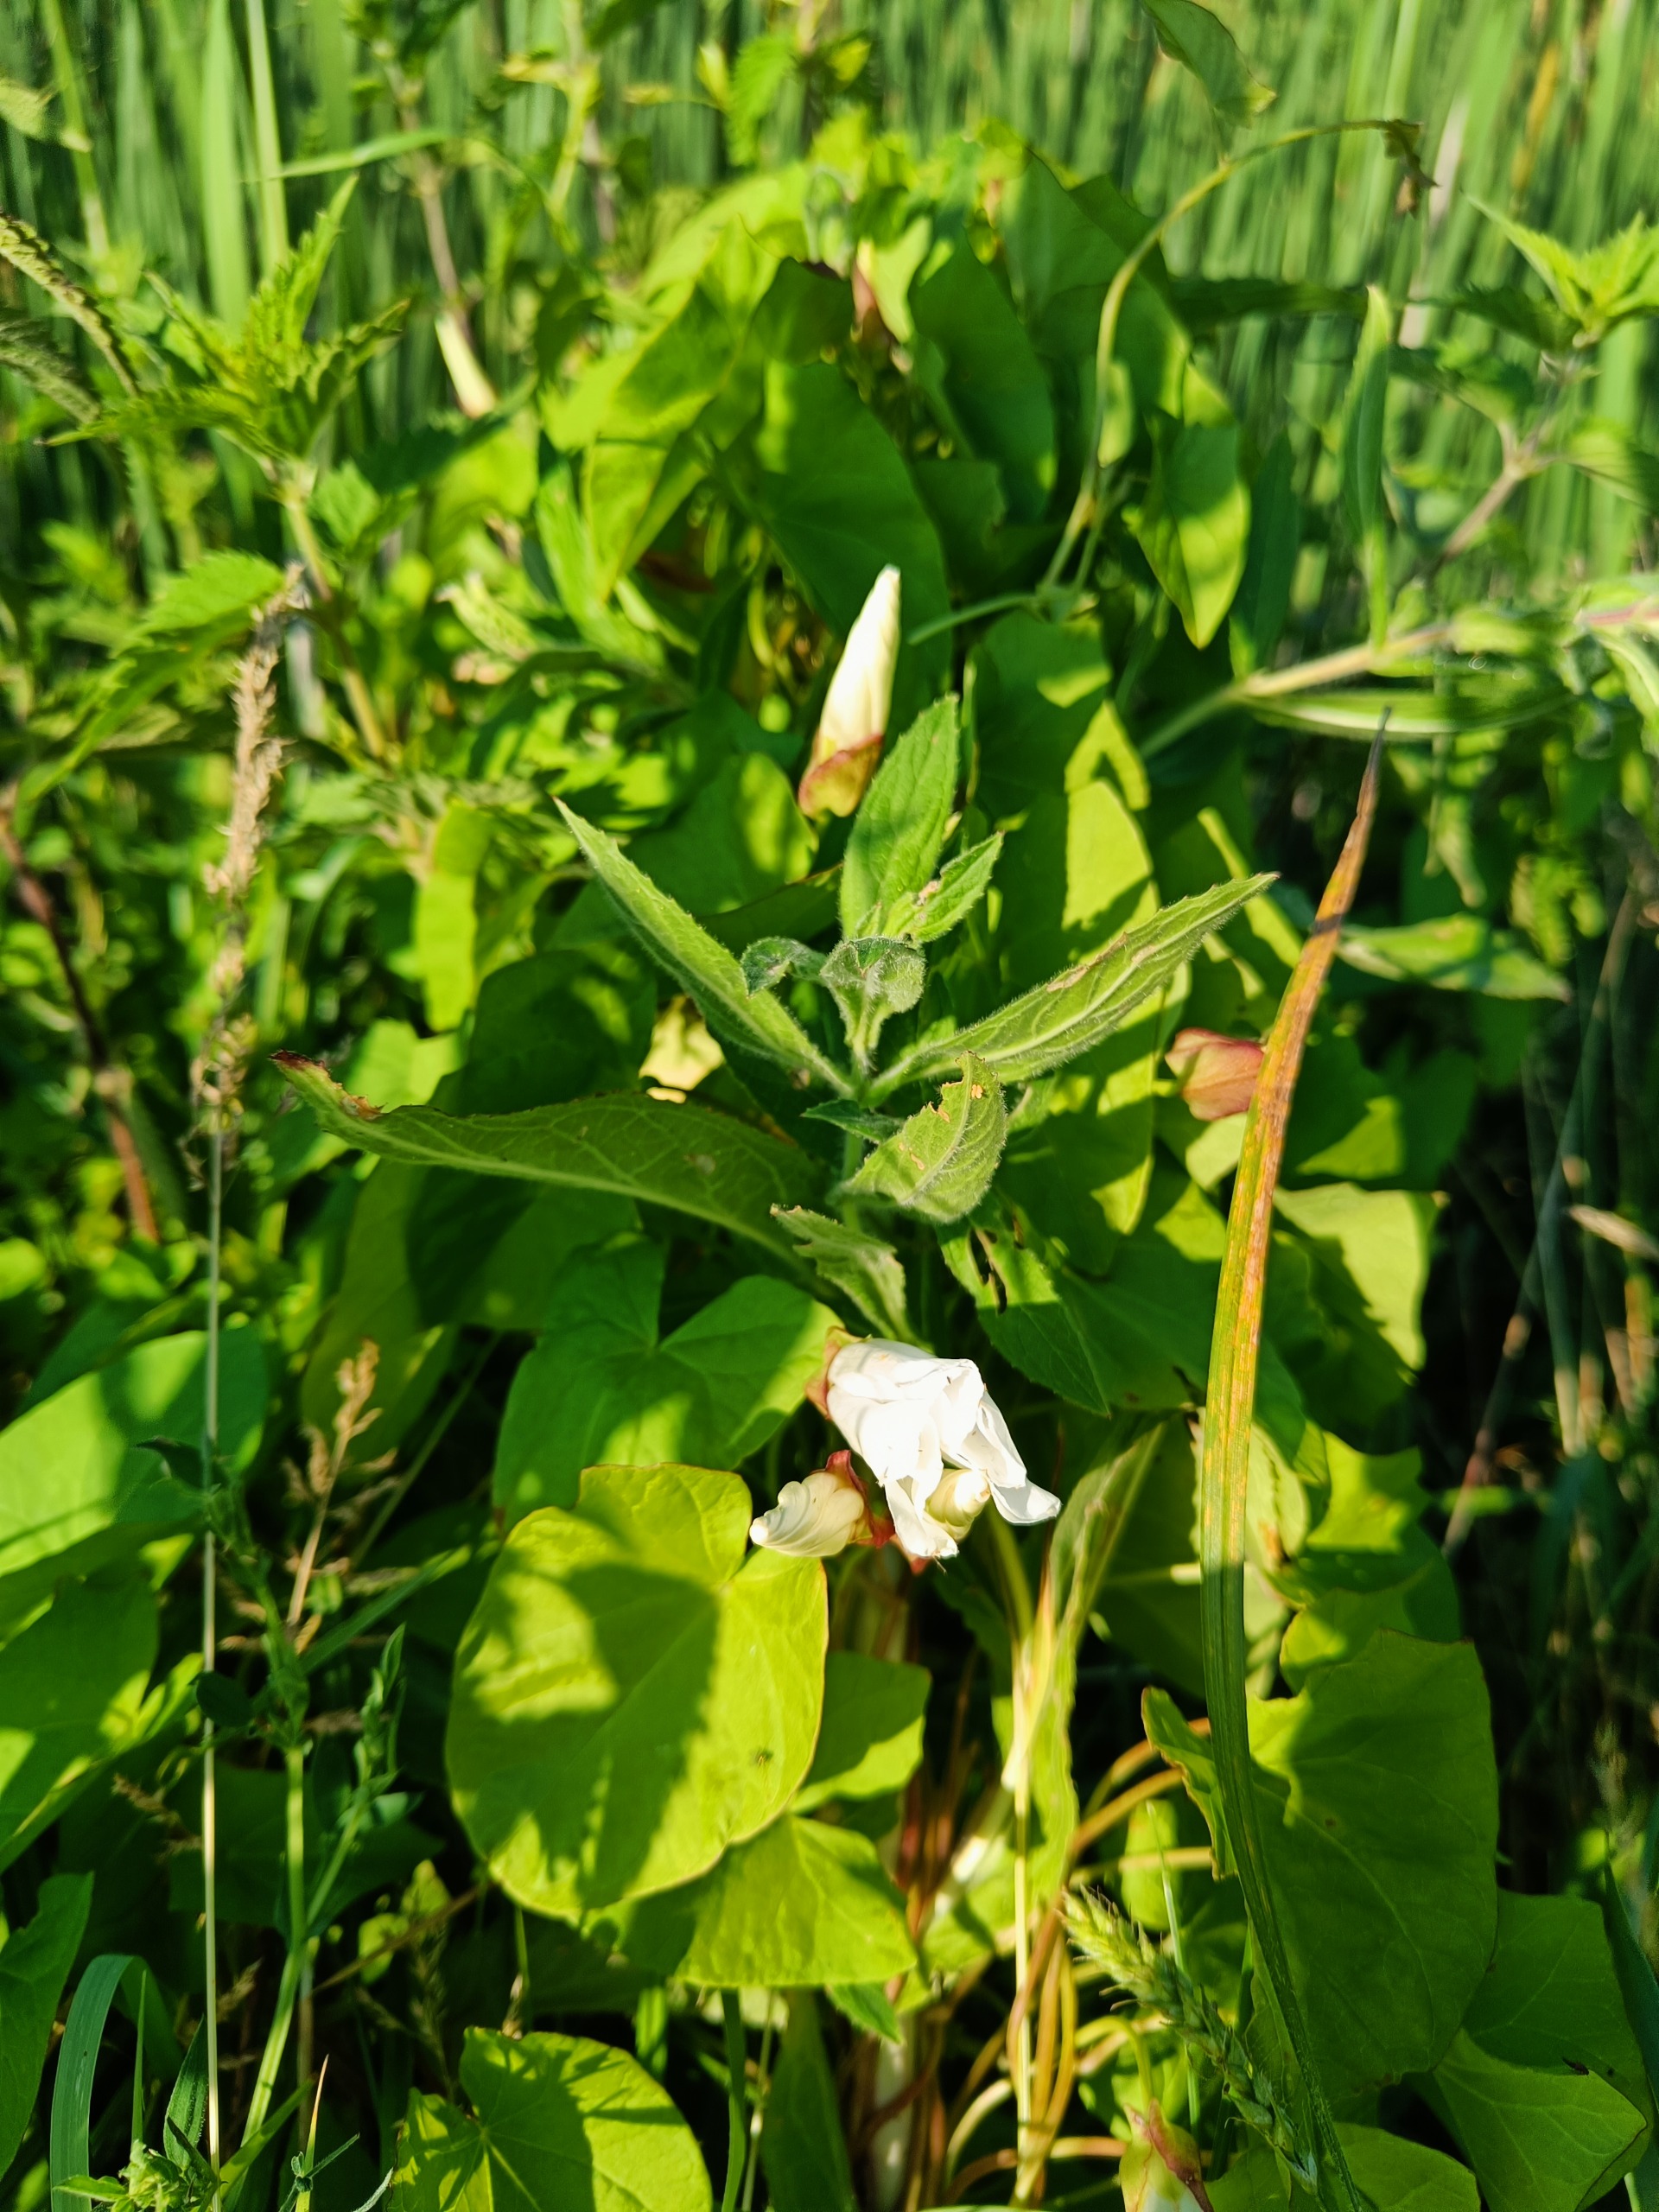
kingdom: Plantae
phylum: Tracheophyta
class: Magnoliopsida
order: Solanales
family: Convolvulaceae
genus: Calystegia
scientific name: Calystegia sepium
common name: Gærde-snerle
